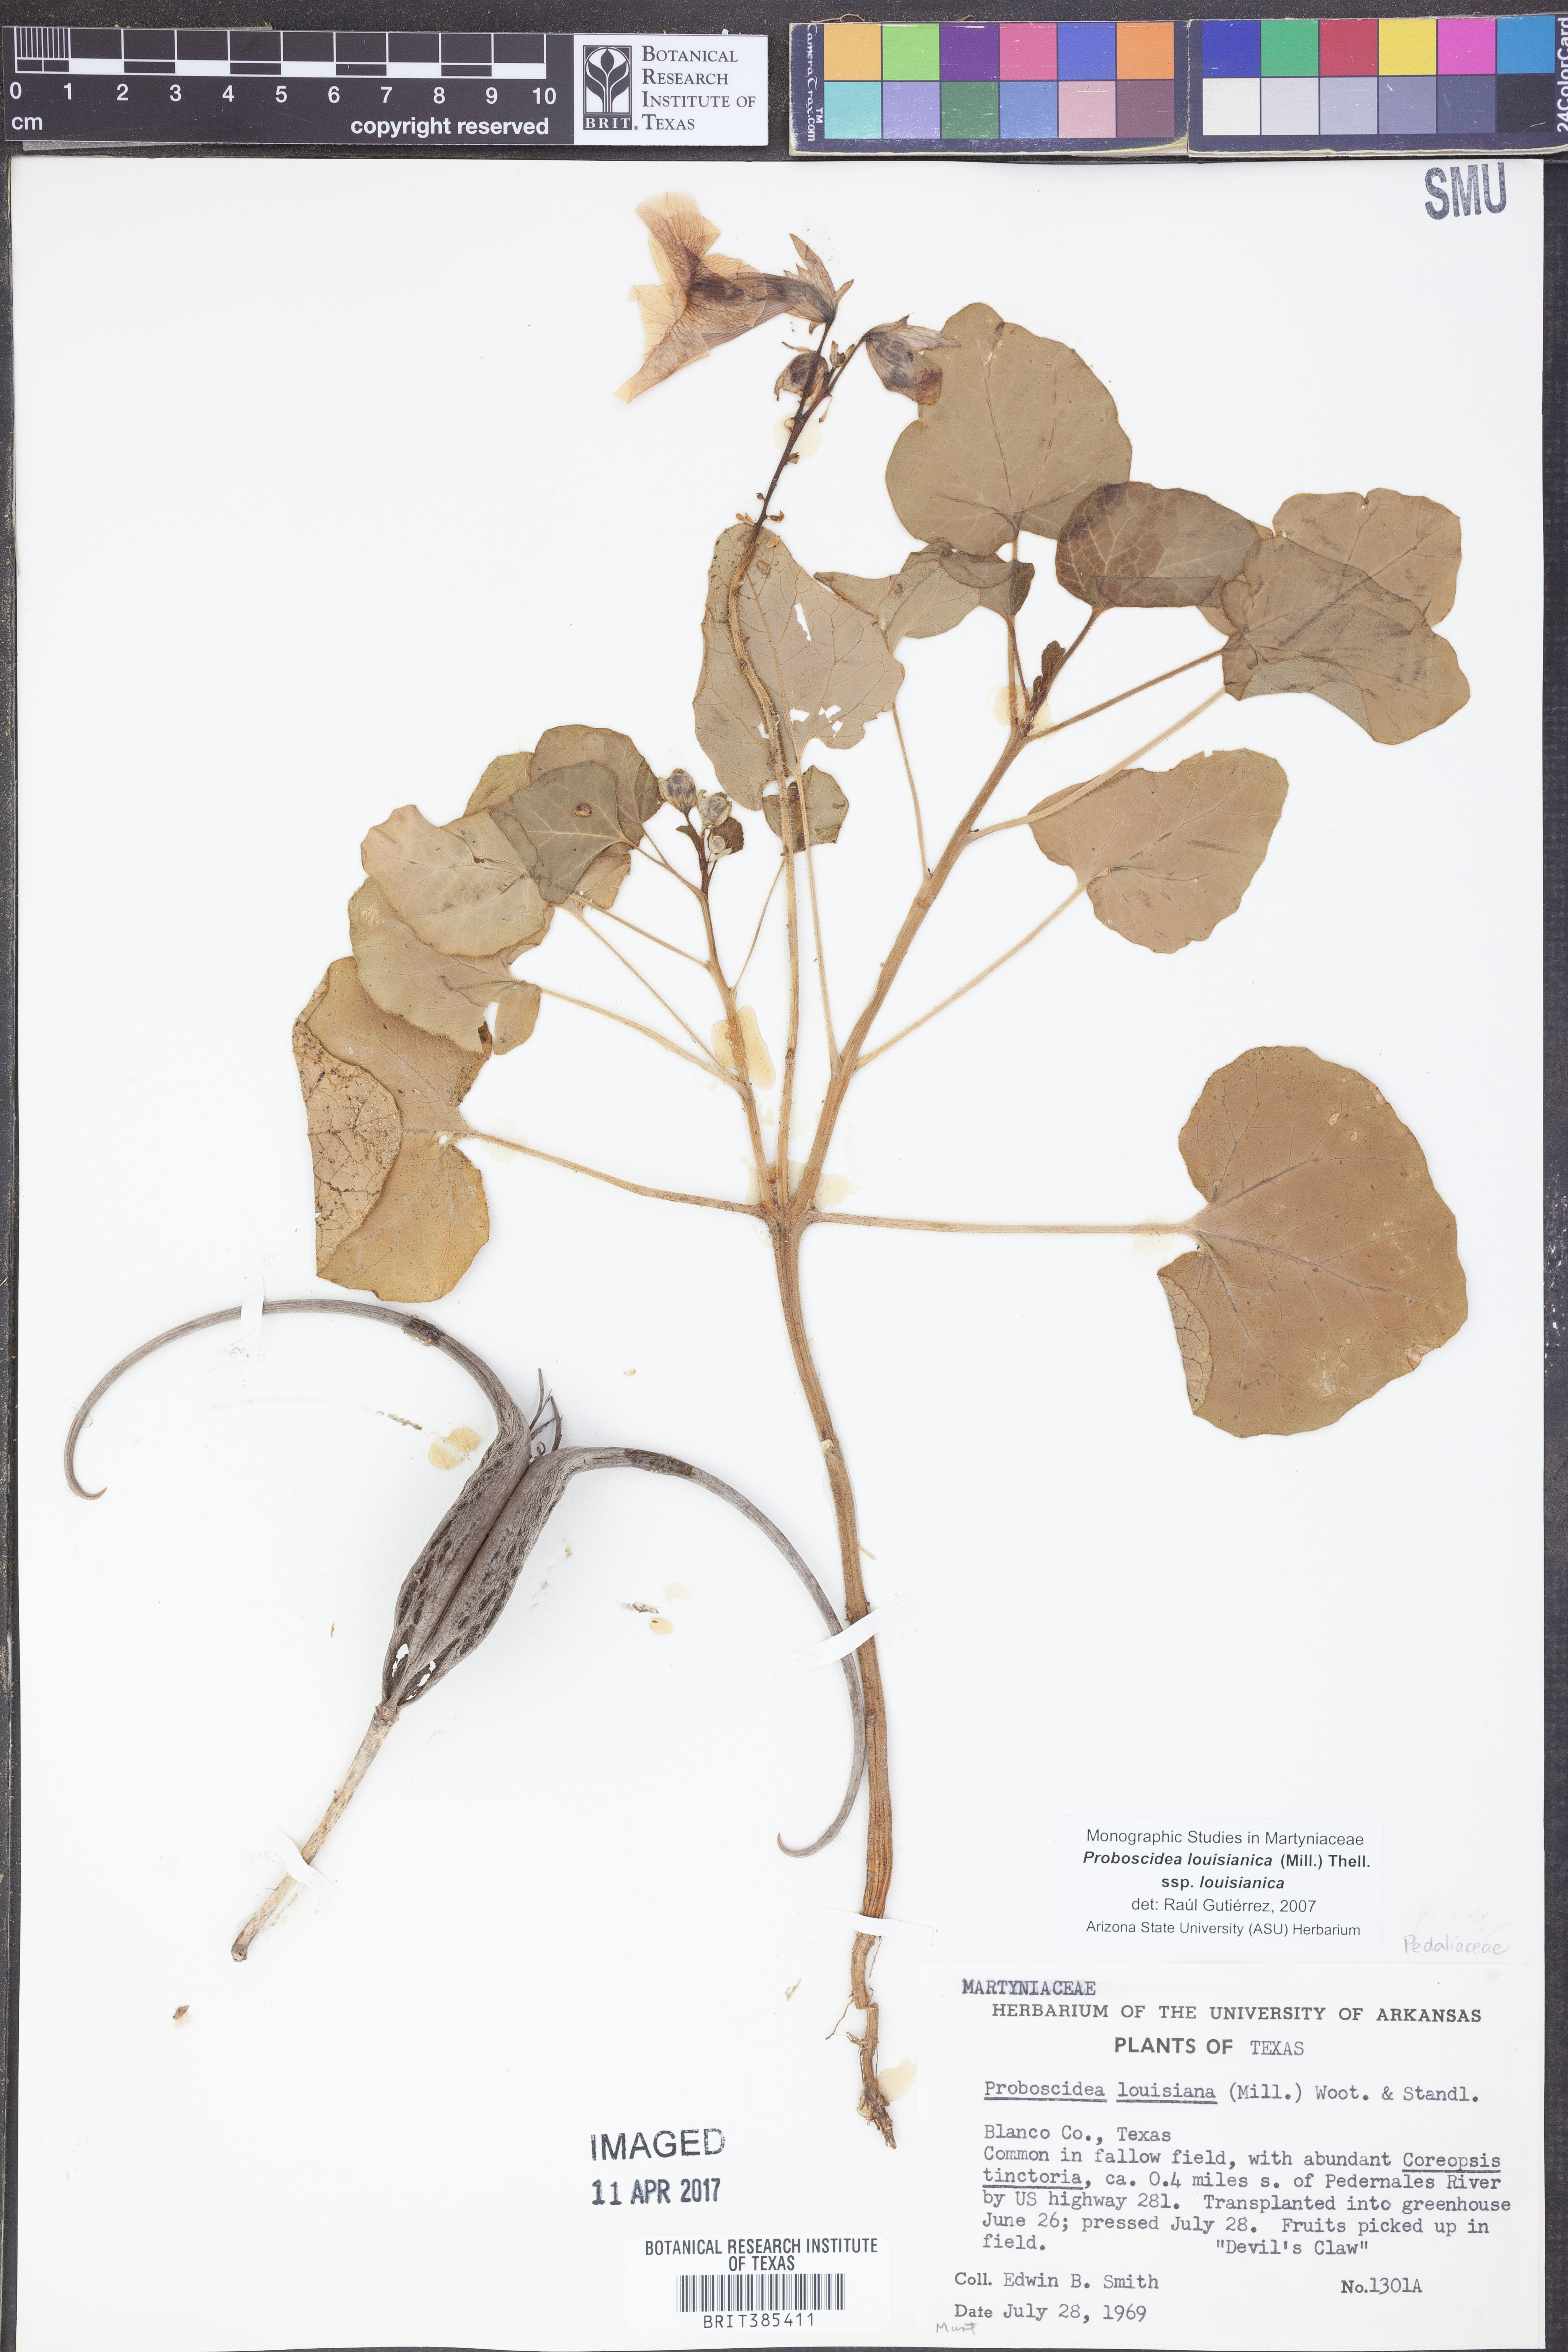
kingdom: Plantae
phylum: Tracheophyta
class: Magnoliopsida
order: Lamiales
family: Martyniaceae
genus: Proboscidea
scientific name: Proboscidea louisianica
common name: Elephant tusks
